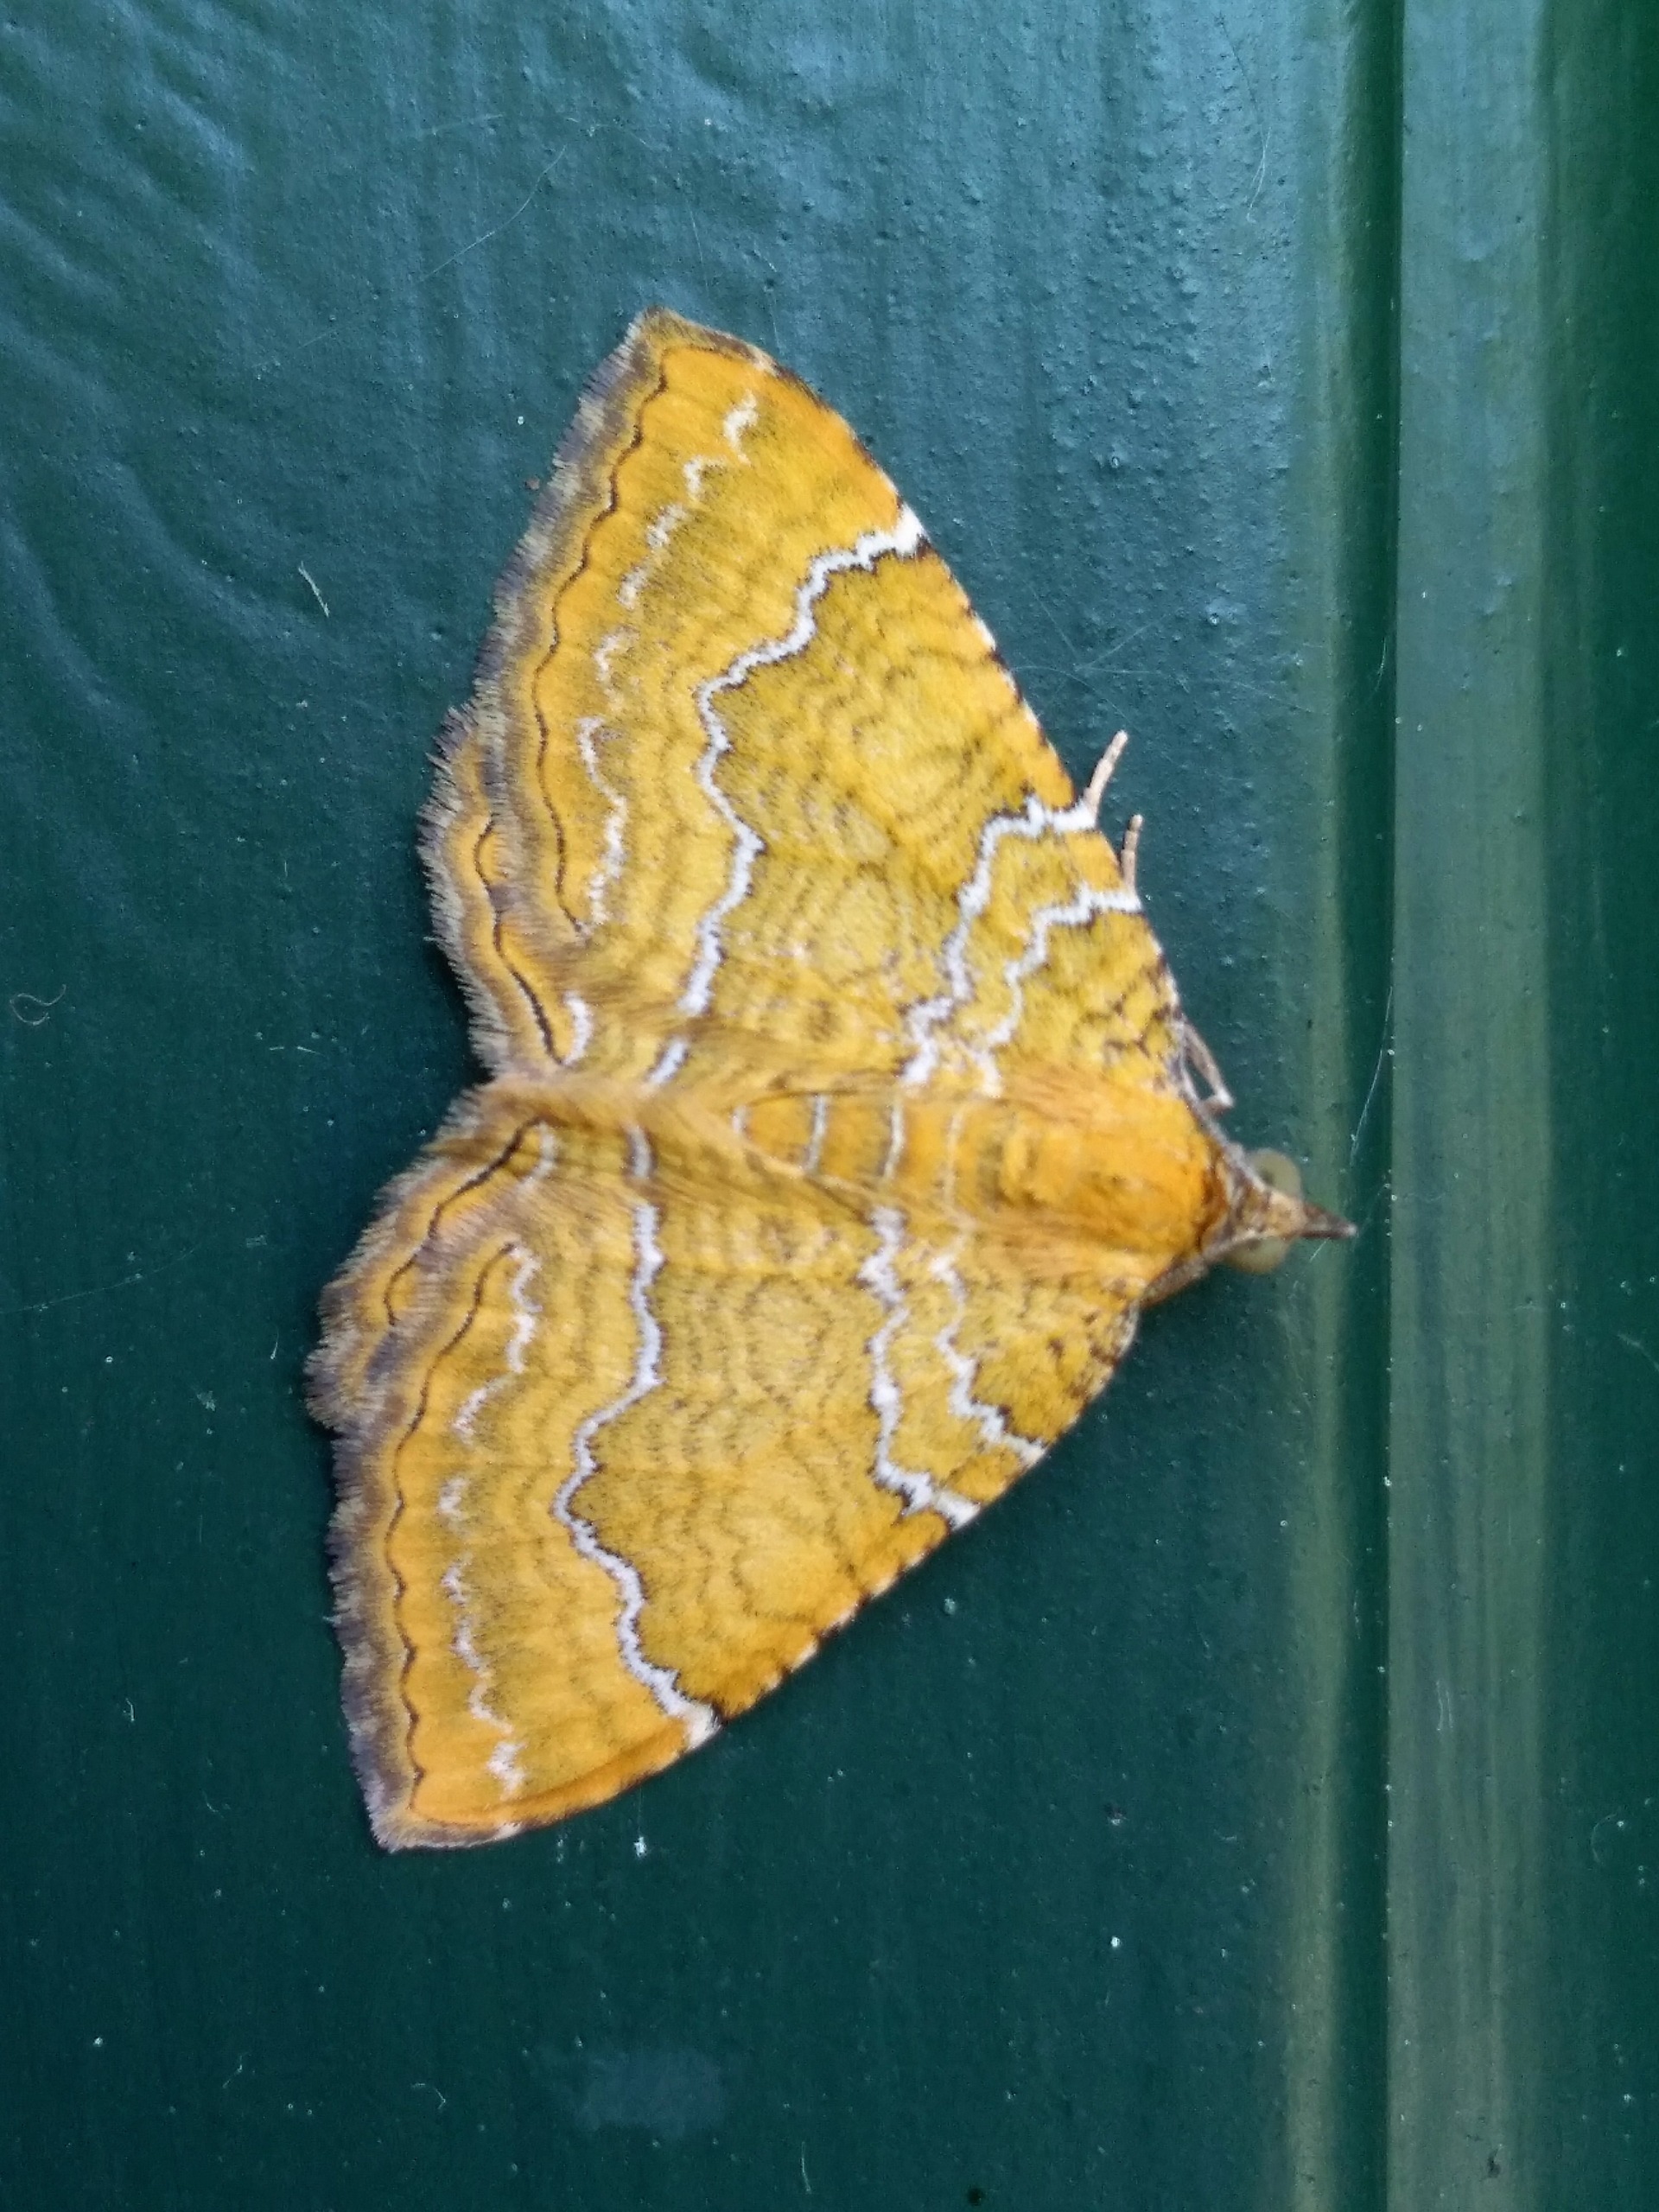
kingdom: Animalia
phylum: Arthropoda
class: Insecta
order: Lepidoptera
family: Geometridae
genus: Camptogramma
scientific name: Camptogramma bilineata
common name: Okkergul bladmåler
